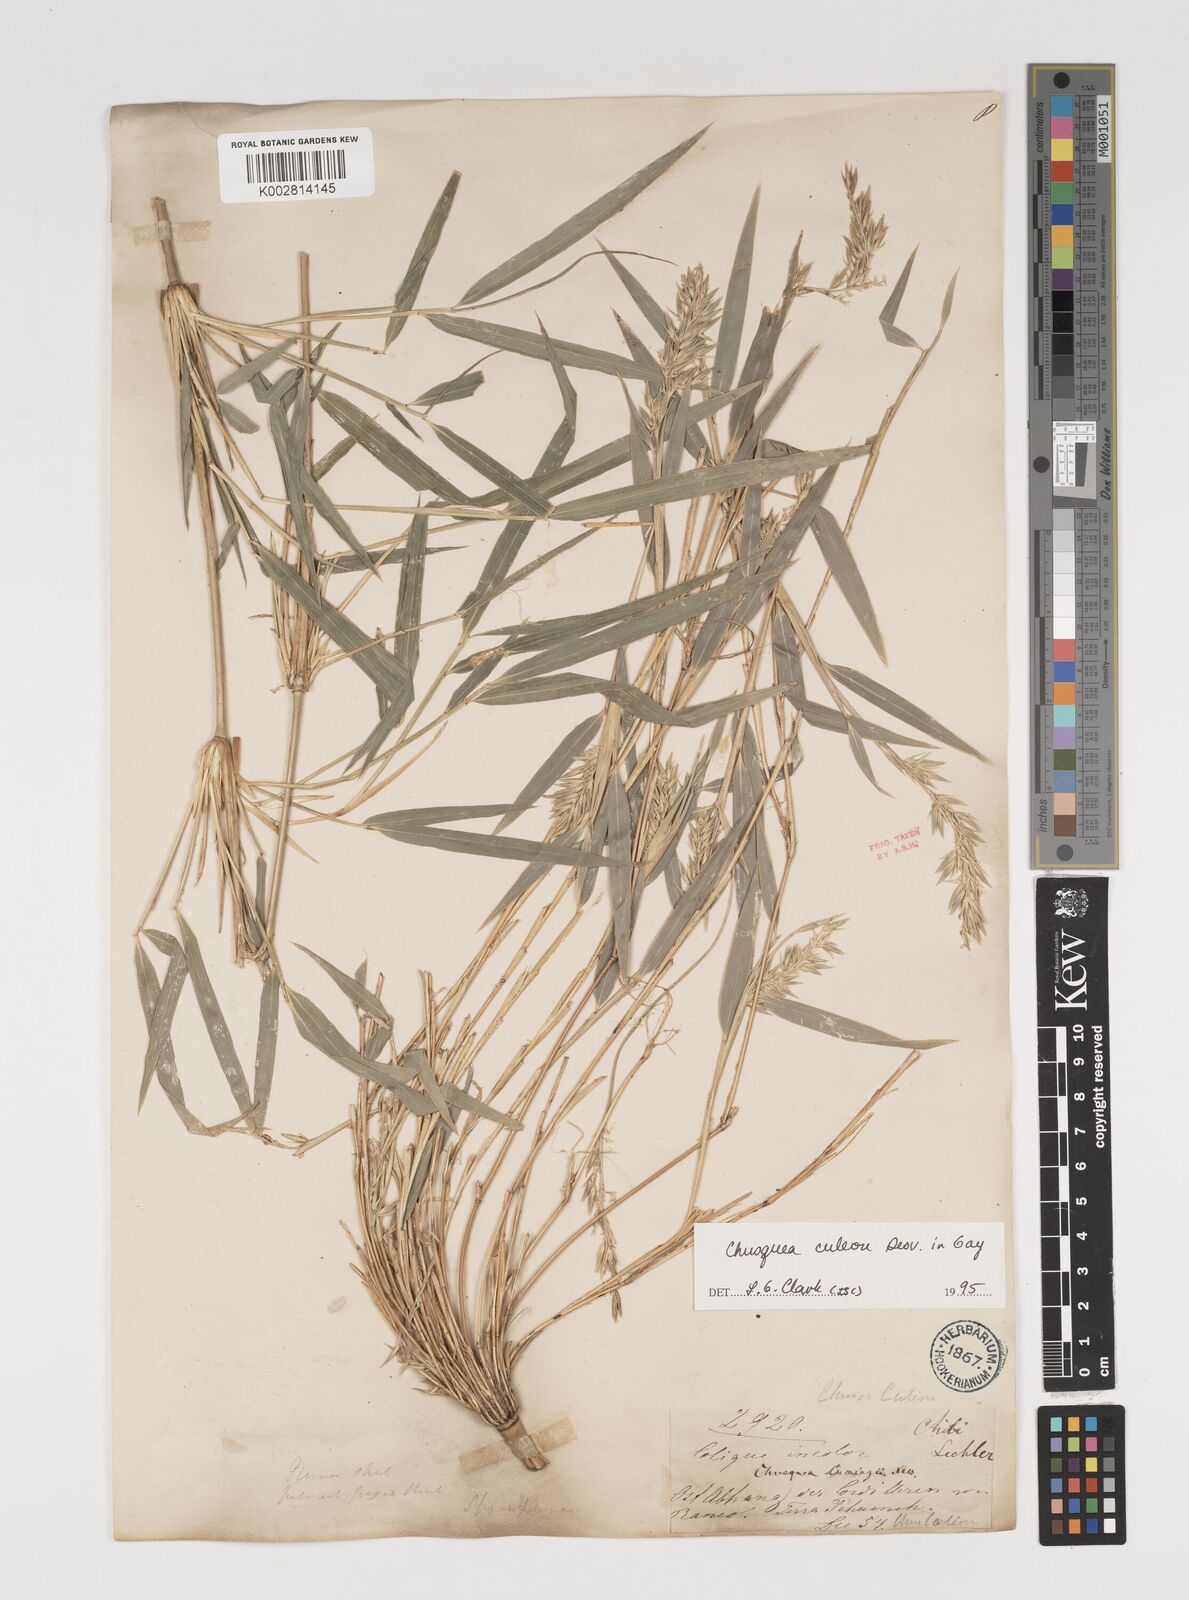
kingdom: Plantae
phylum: Tracheophyta
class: Liliopsida
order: Poales
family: Poaceae
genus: Chusquea
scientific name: Chusquea culeou
